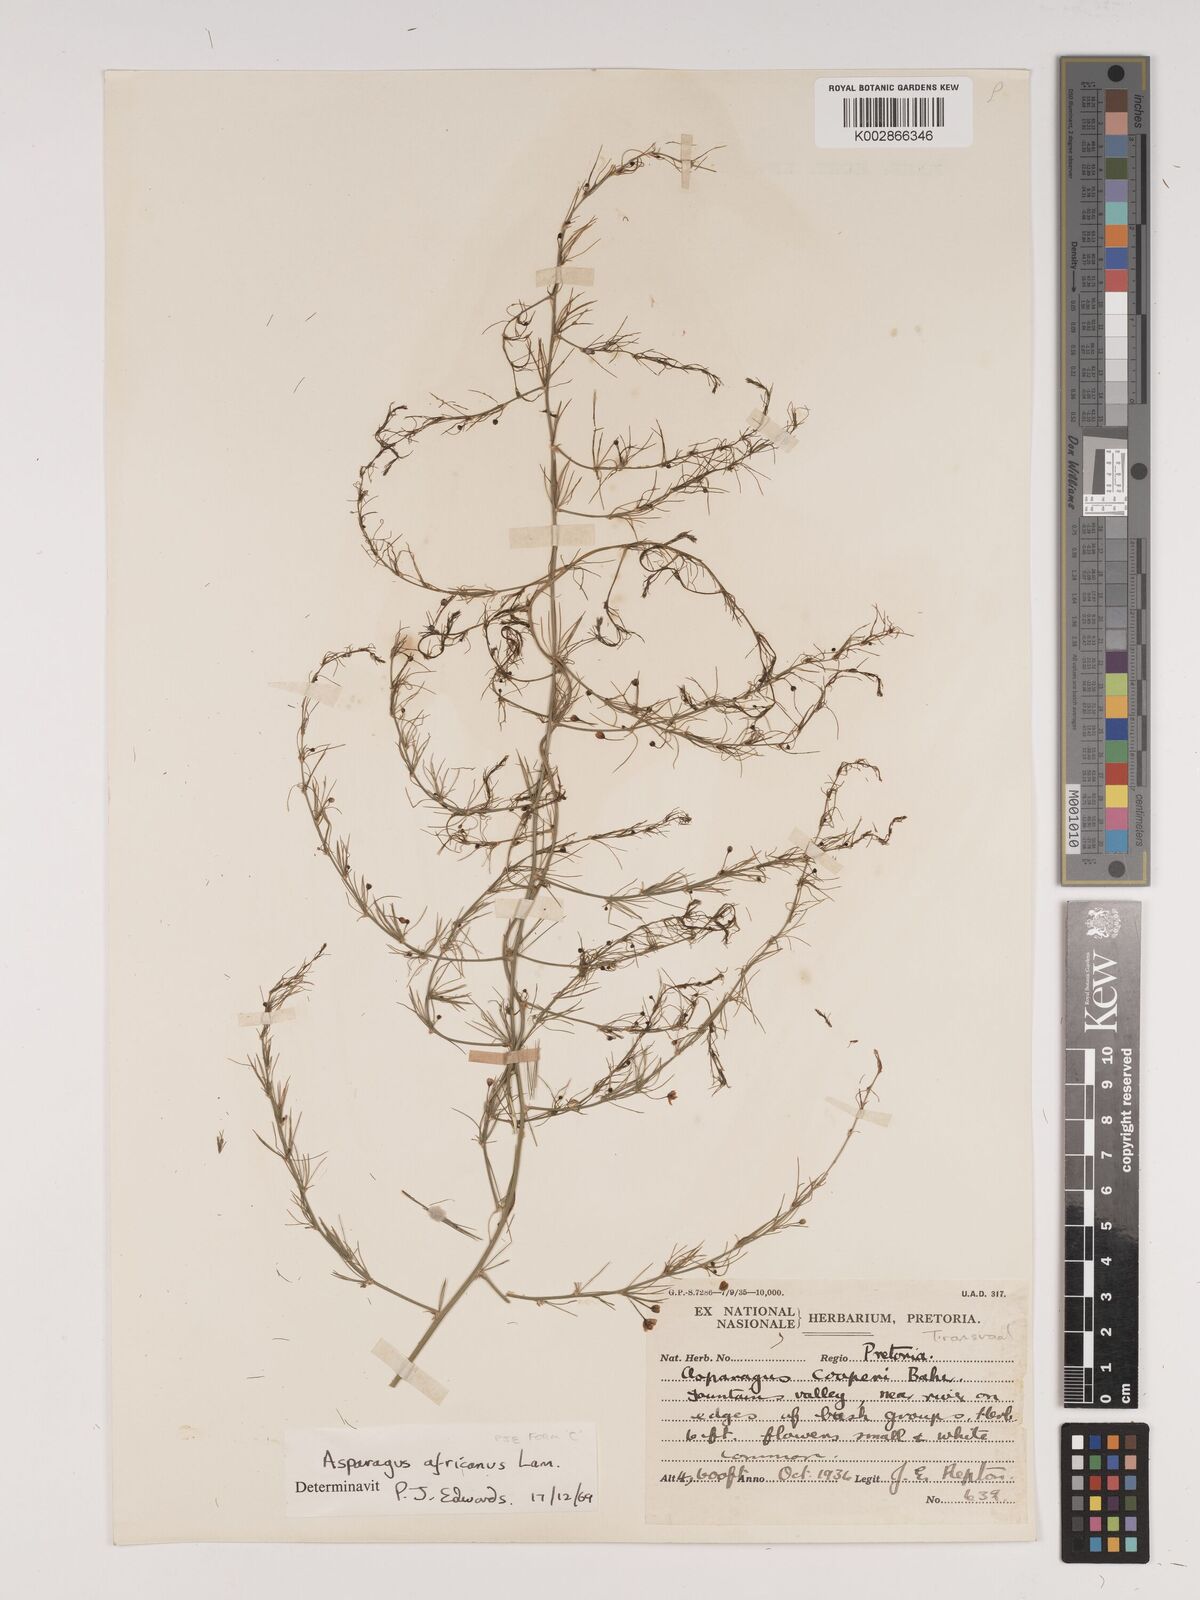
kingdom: Plantae
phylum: Tracheophyta
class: Liliopsida
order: Asparagales
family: Asparagaceae
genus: Asparagus
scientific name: Asparagus africanus
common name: Asparagus-fern
